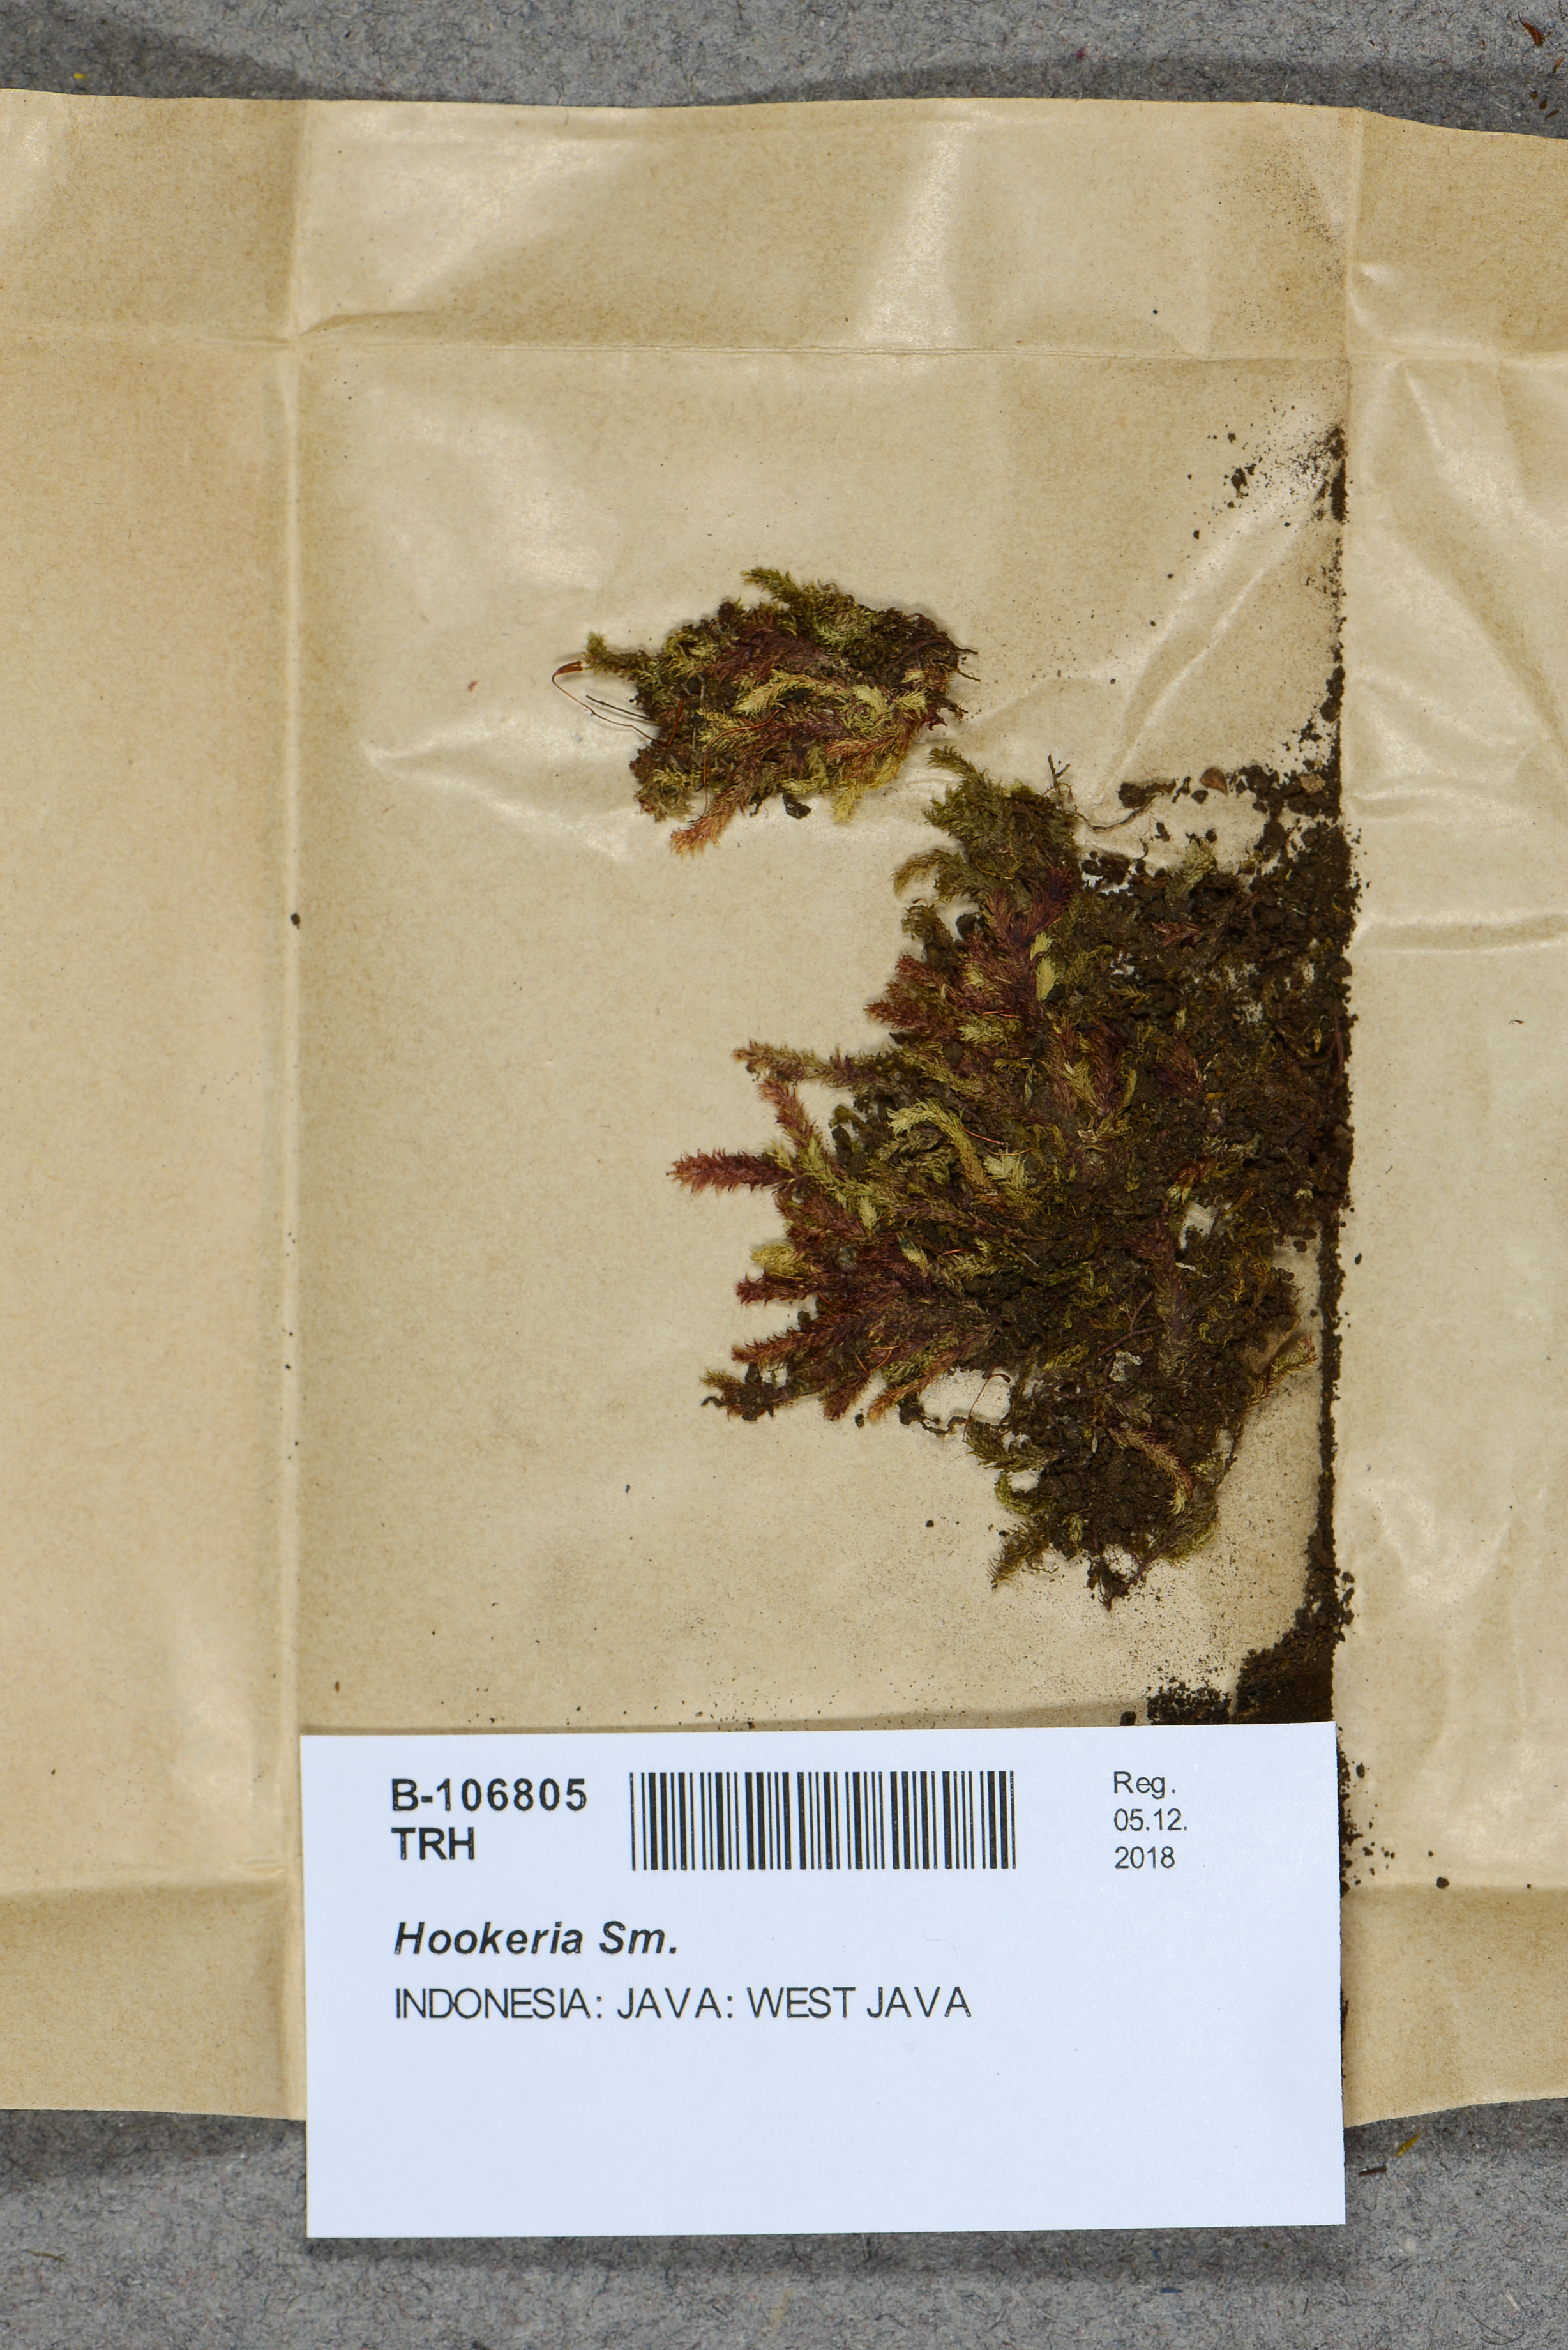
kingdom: Plantae
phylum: Bryophyta
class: Bryopsida
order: Hookeriales
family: Hookeriaceae
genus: Hookeria
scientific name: Hookeria
